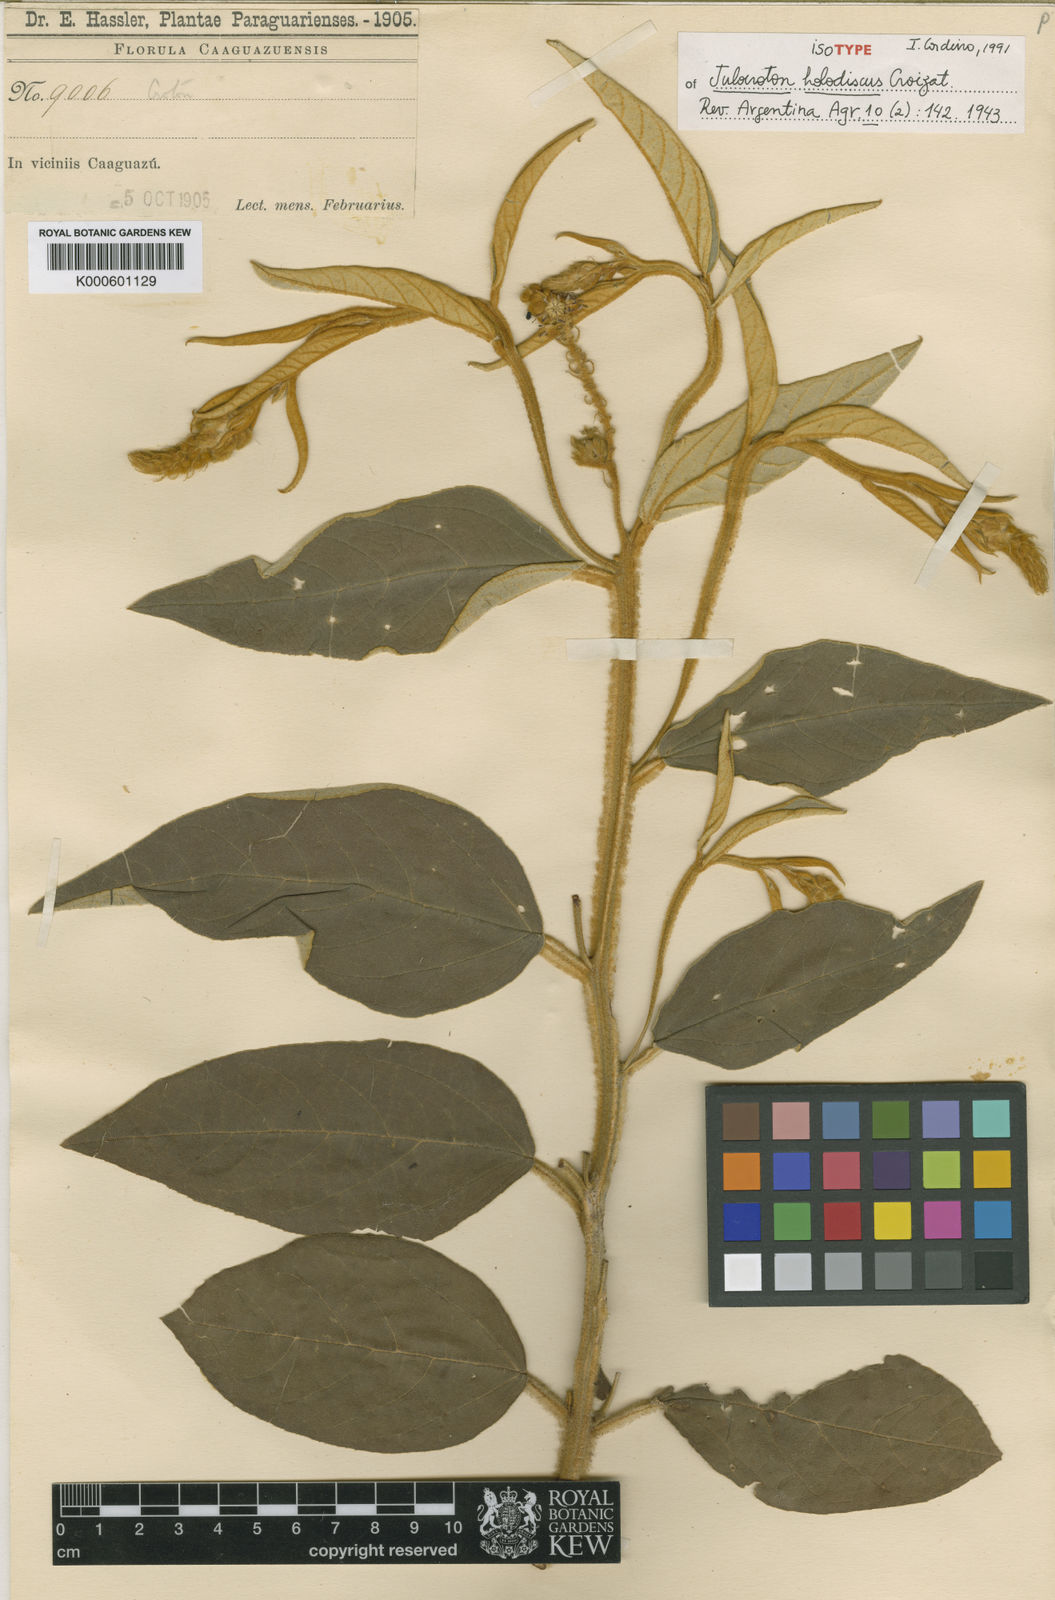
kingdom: Plantae
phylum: Tracheophyta
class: Magnoliopsida
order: Malpighiales
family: Euphorbiaceae
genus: Croton
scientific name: Croton holodiscus
